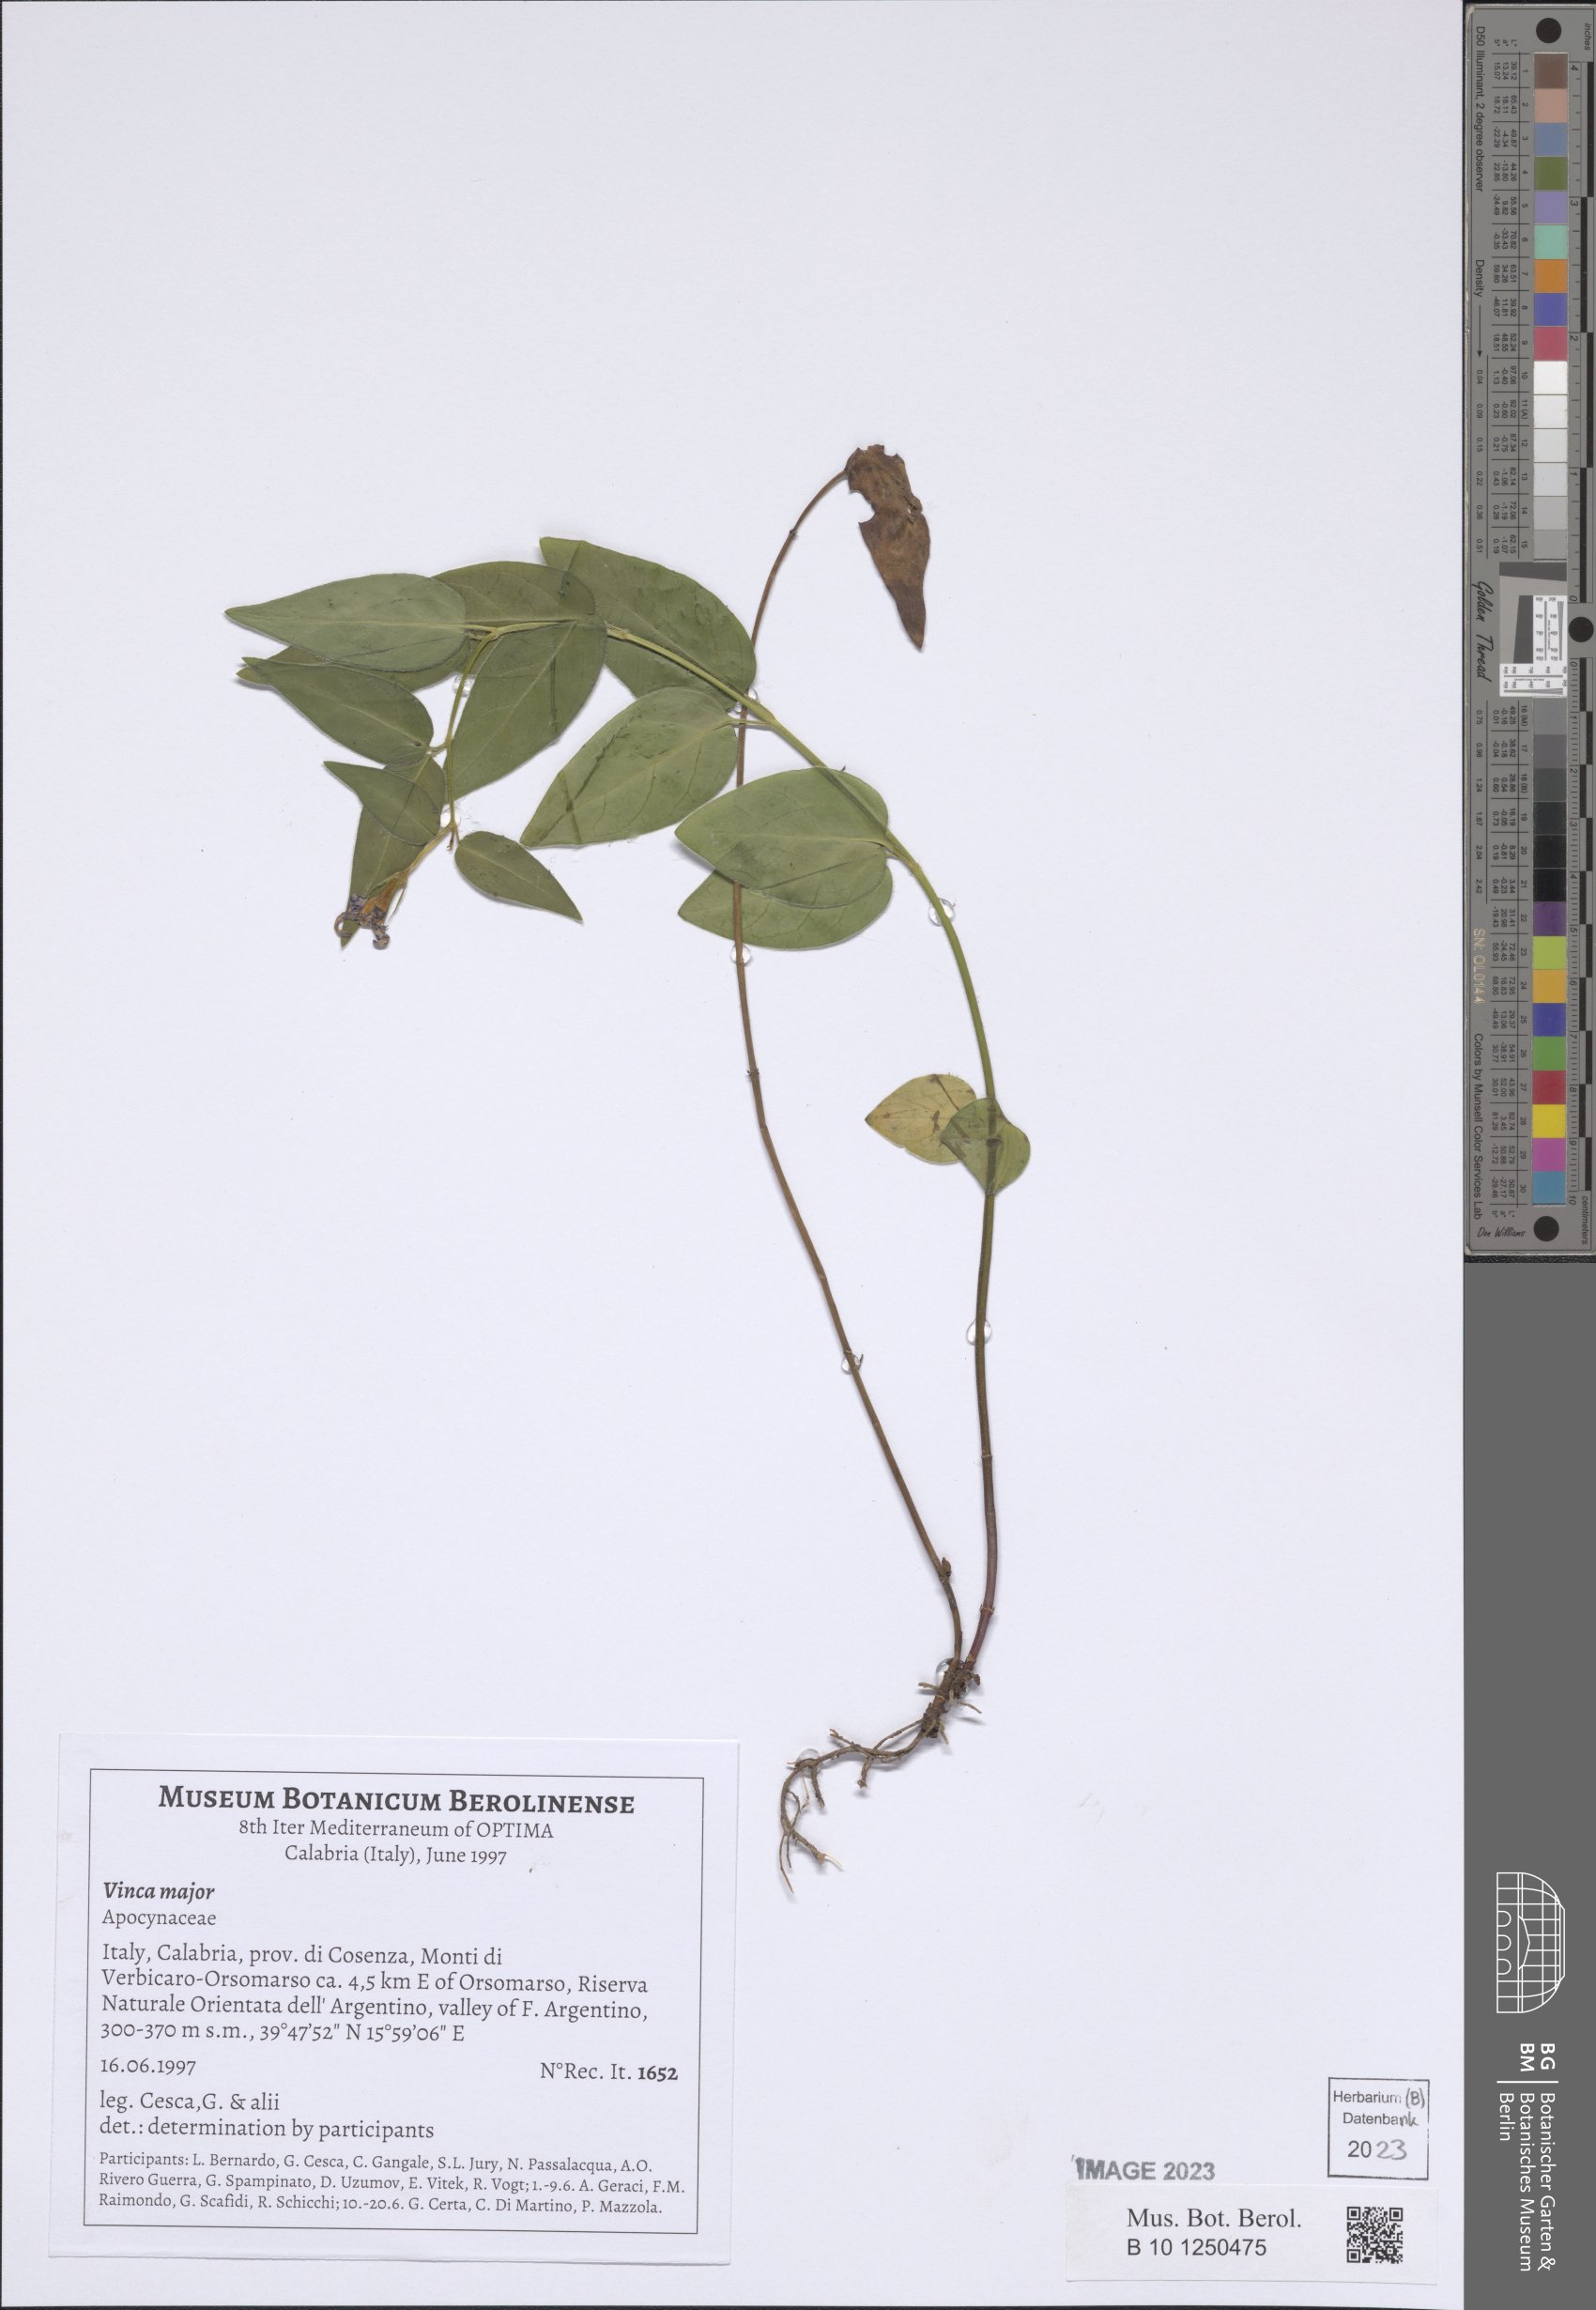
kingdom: Plantae
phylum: Tracheophyta
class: Magnoliopsida
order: Gentianales
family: Apocynaceae
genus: Vinca
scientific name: Vinca major
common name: Greater periwinkle
